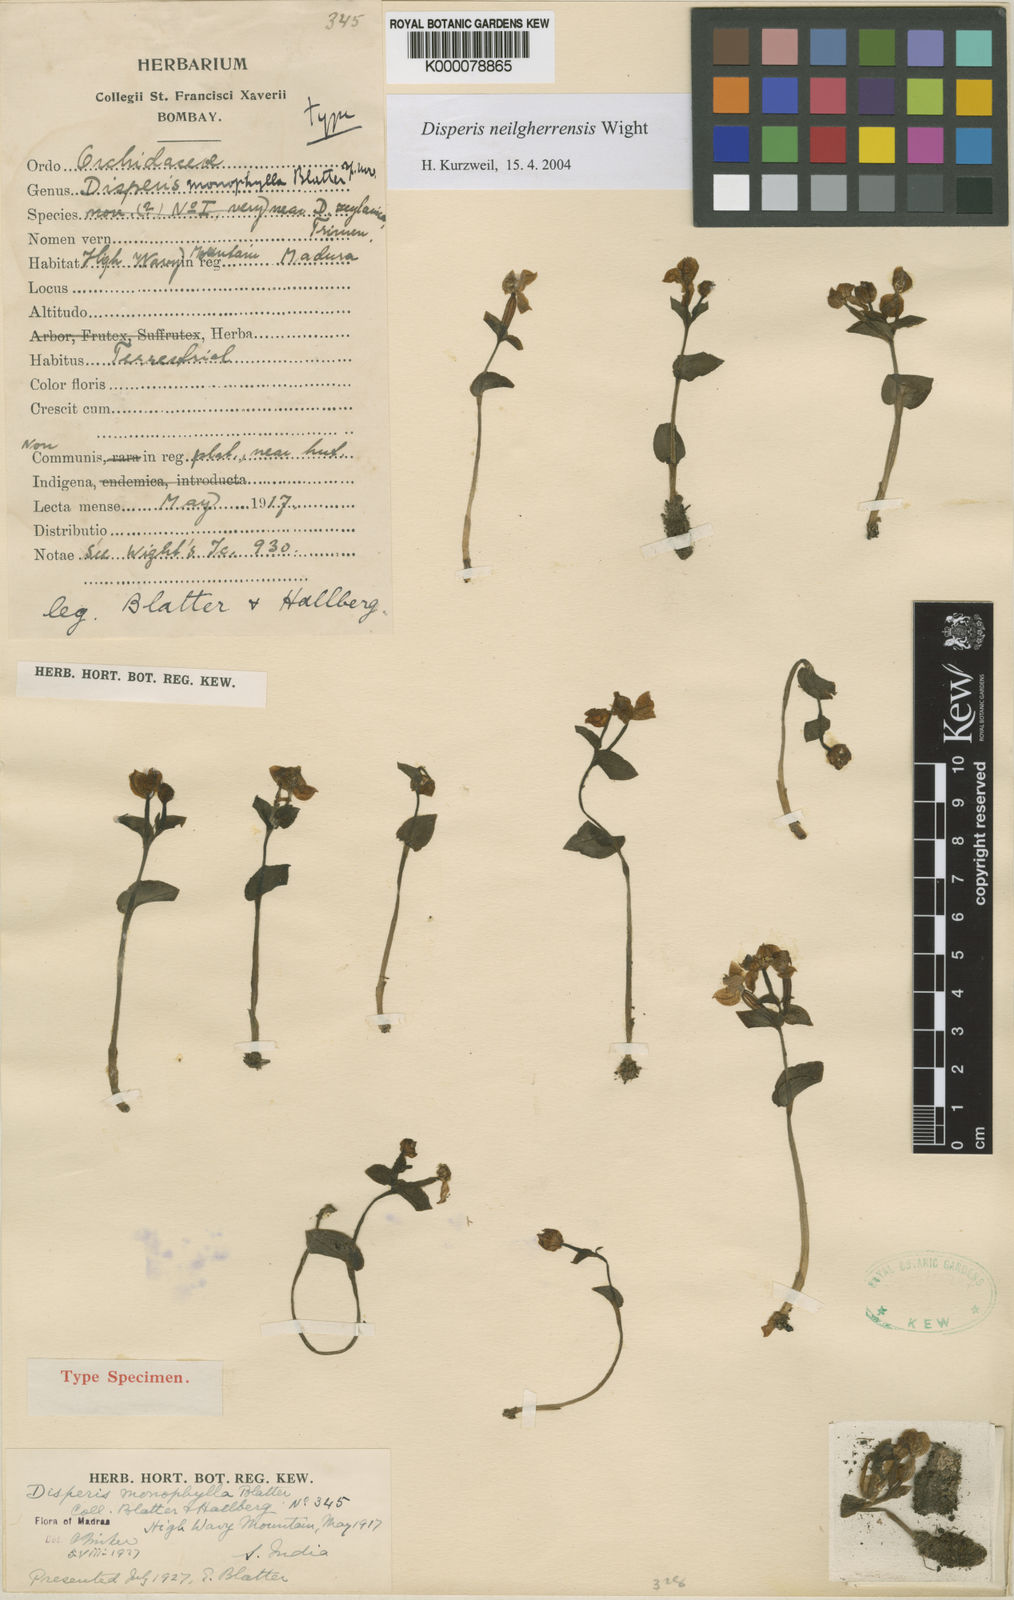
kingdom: Plantae
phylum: Tracheophyta
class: Liliopsida
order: Asparagales
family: Orchidaceae
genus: Disperis
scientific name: Disperis neilgherrensis
